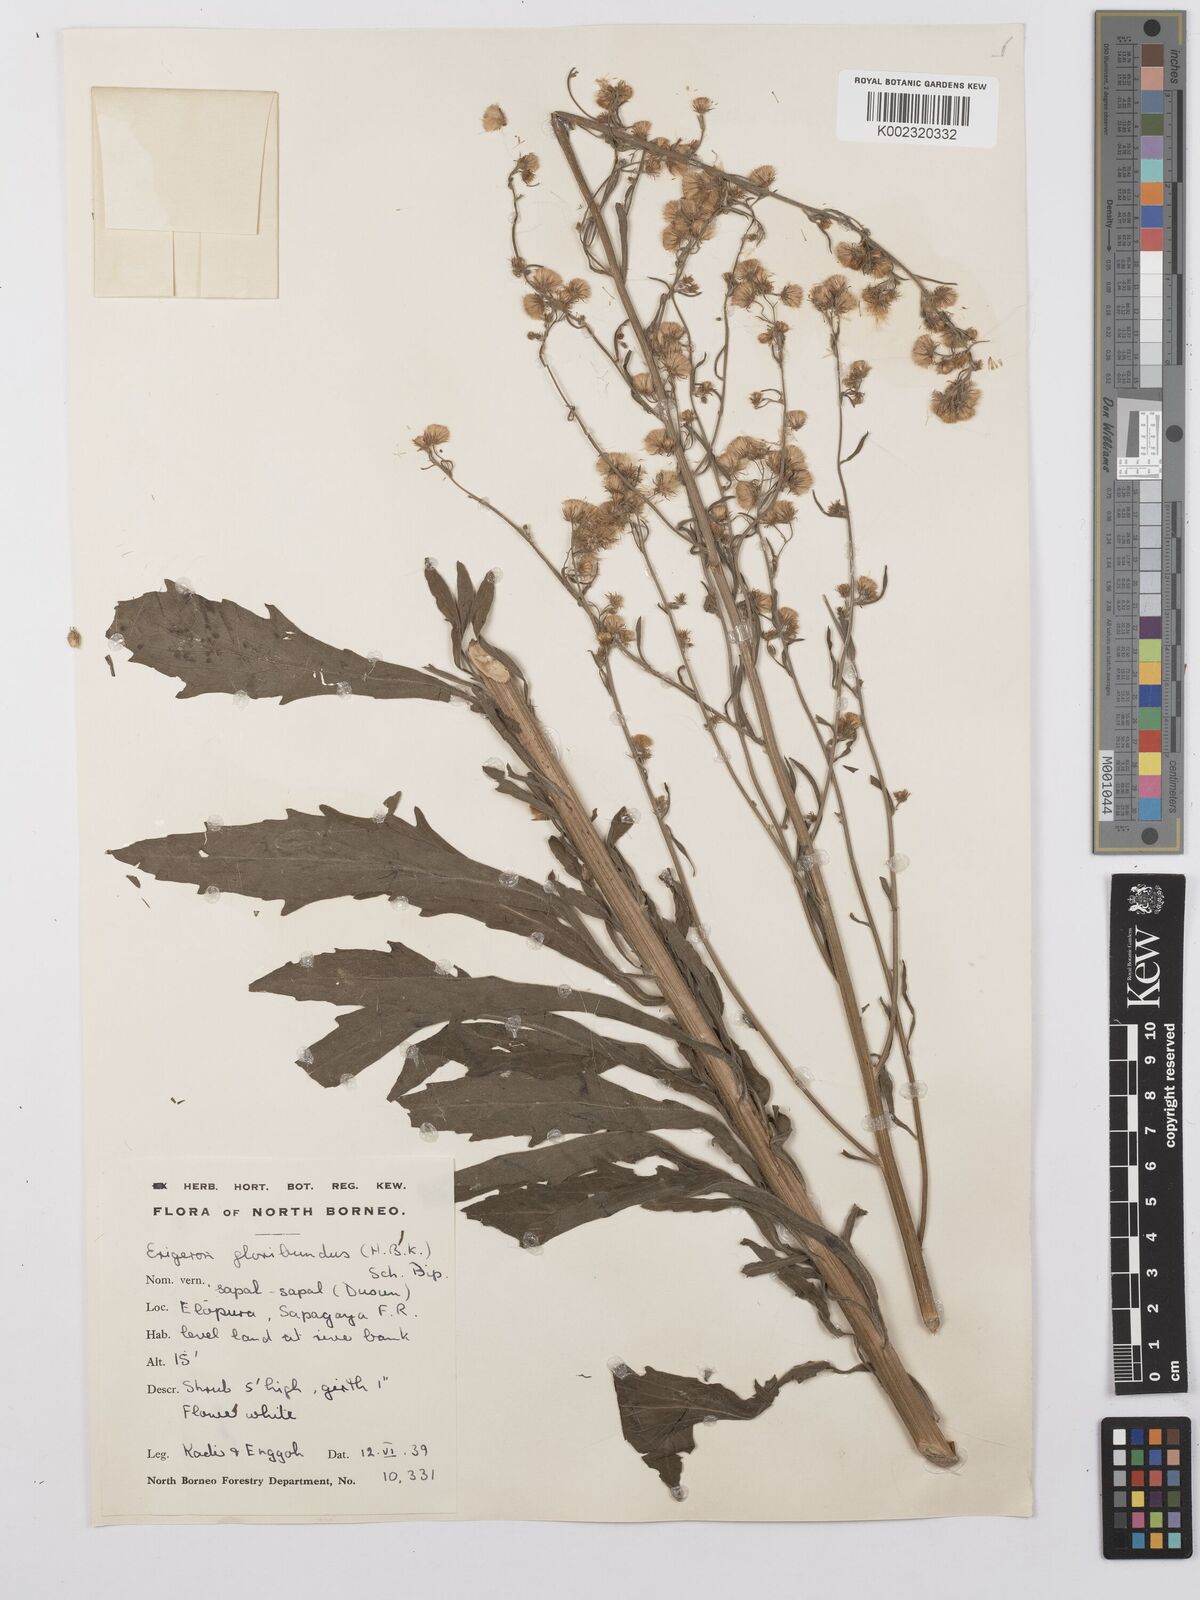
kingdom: Plantae
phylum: Tracheophyta
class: Magnoliopsida
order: Asterales
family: Asteraceae
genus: Erigeron
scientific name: Erigeron sumatrensis
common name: Daisy
